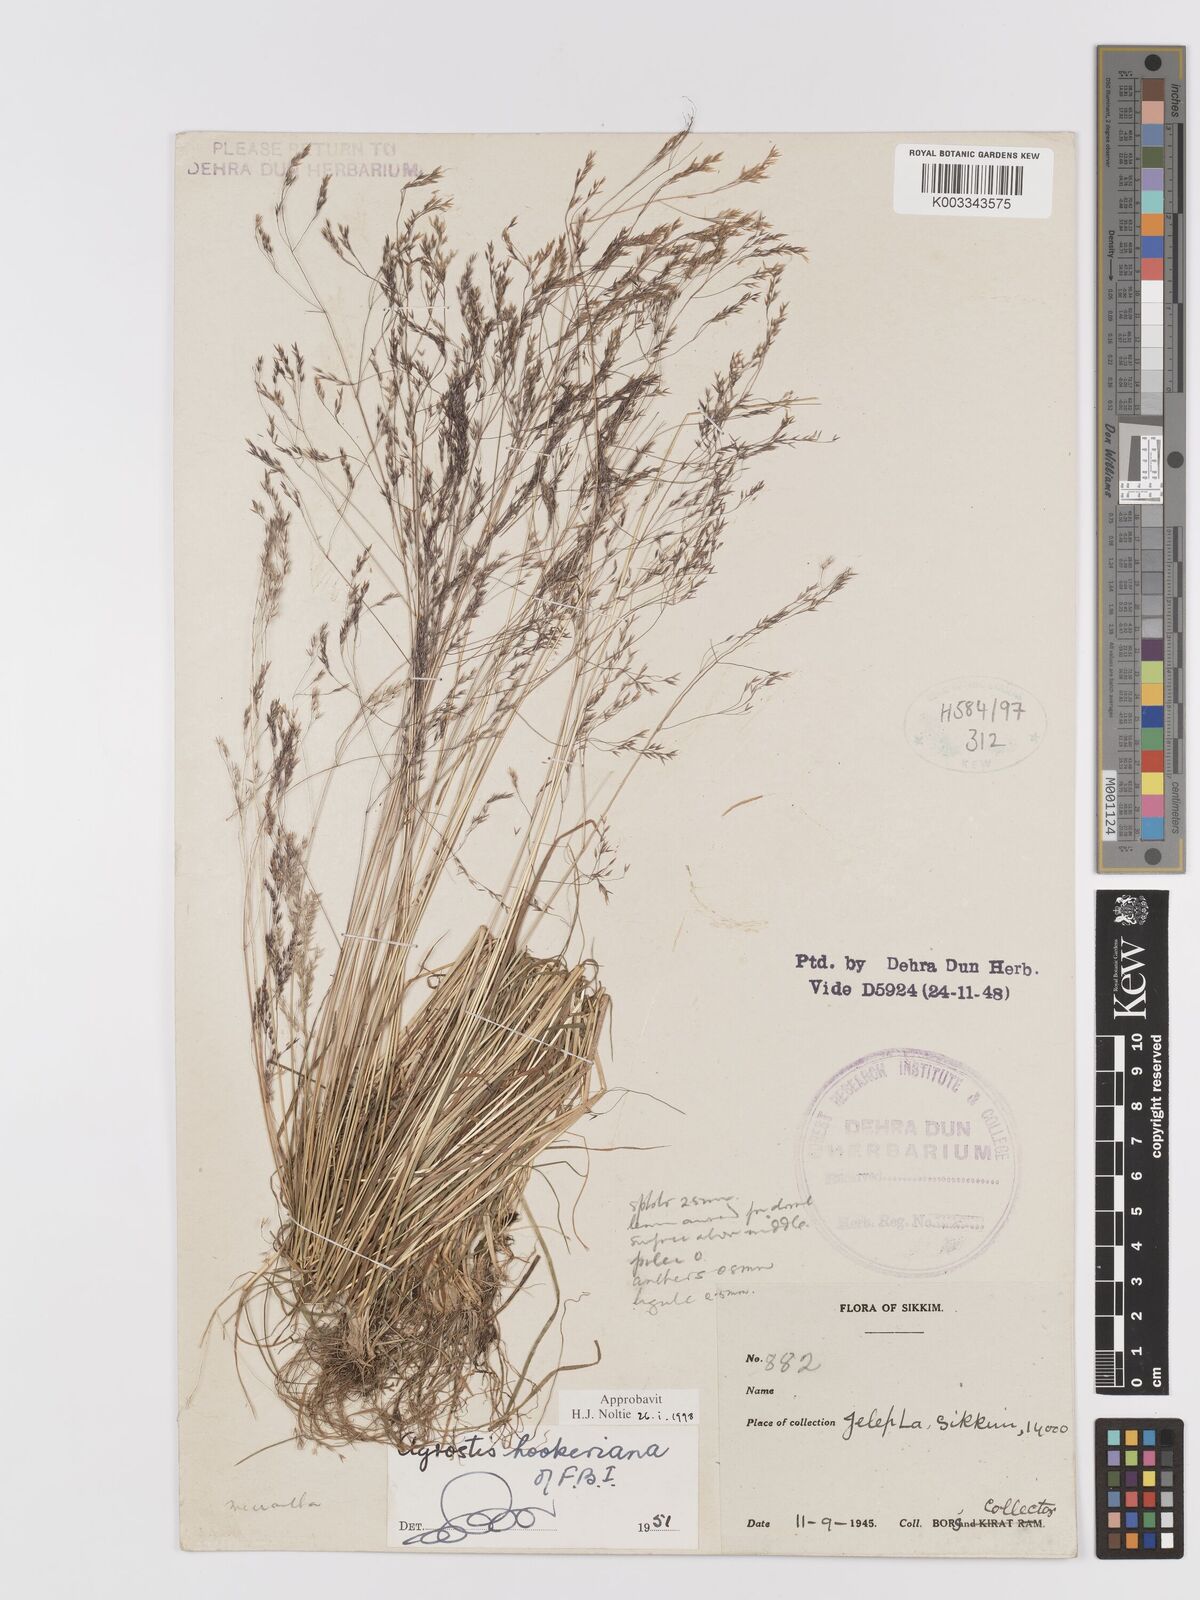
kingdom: Plantae
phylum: Tracheophyta
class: Liliopsida
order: Poales
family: Poaceae
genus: Agrostis
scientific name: Agrostis hookeriana
